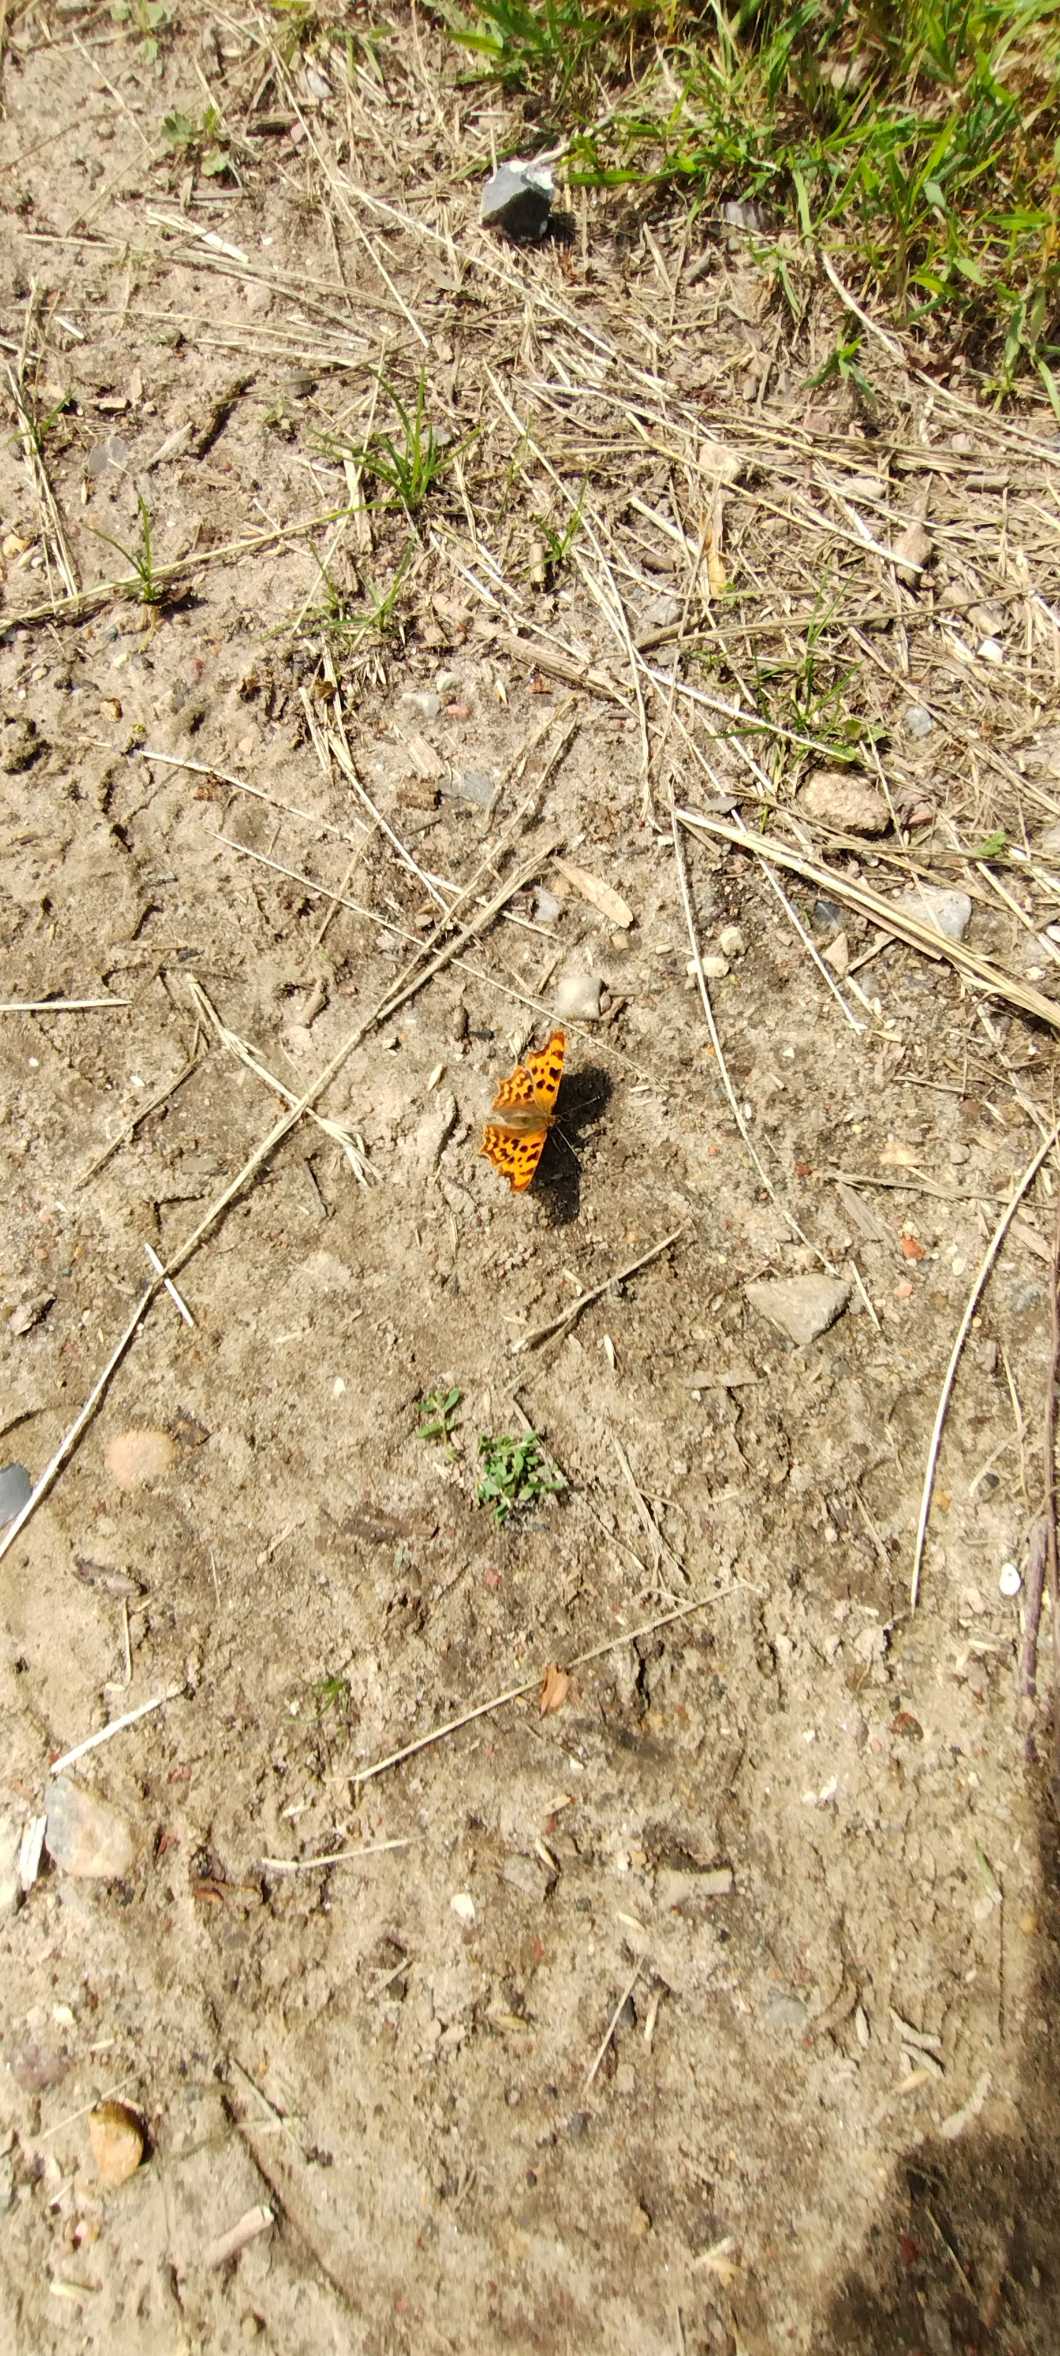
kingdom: Animalia
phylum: Arthropoda
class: Insecta
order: Lepidoptera
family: Nymphalidae
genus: Polygonia
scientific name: Polygonia c-album
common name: Det hvide C
